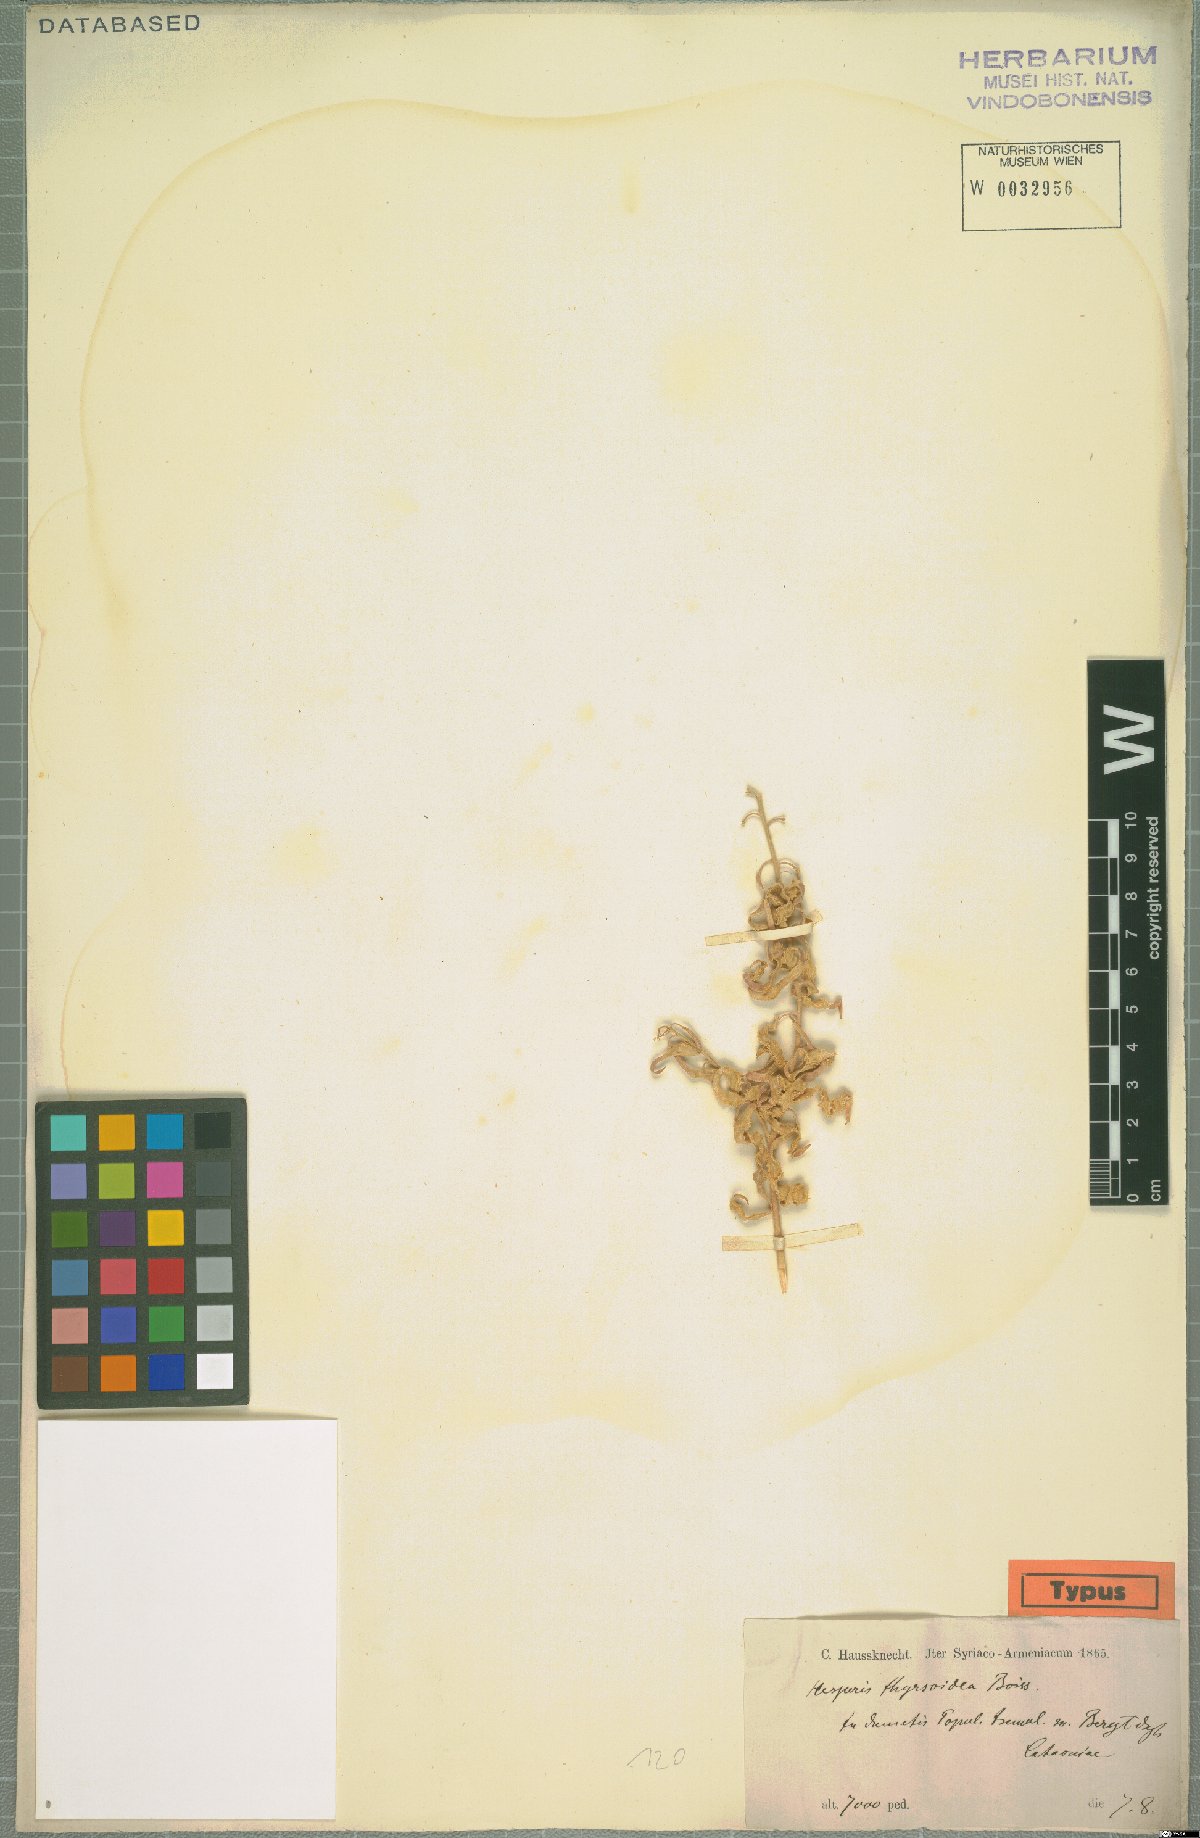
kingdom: Plantae
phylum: Tracheophyta
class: Magnoliopsida
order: Brassicales
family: Brassicaceae
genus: Hesperis
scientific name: Hesperis thyrsoidea
